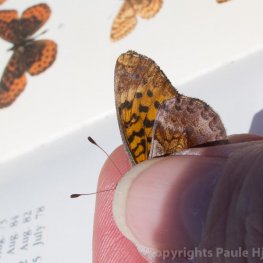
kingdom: Animalia
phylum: Arthropoda
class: Insecta
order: Lepidoptera
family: Nymphalidae
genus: Clossiana
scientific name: Clossiana toddi
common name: Meadow Fritillary
